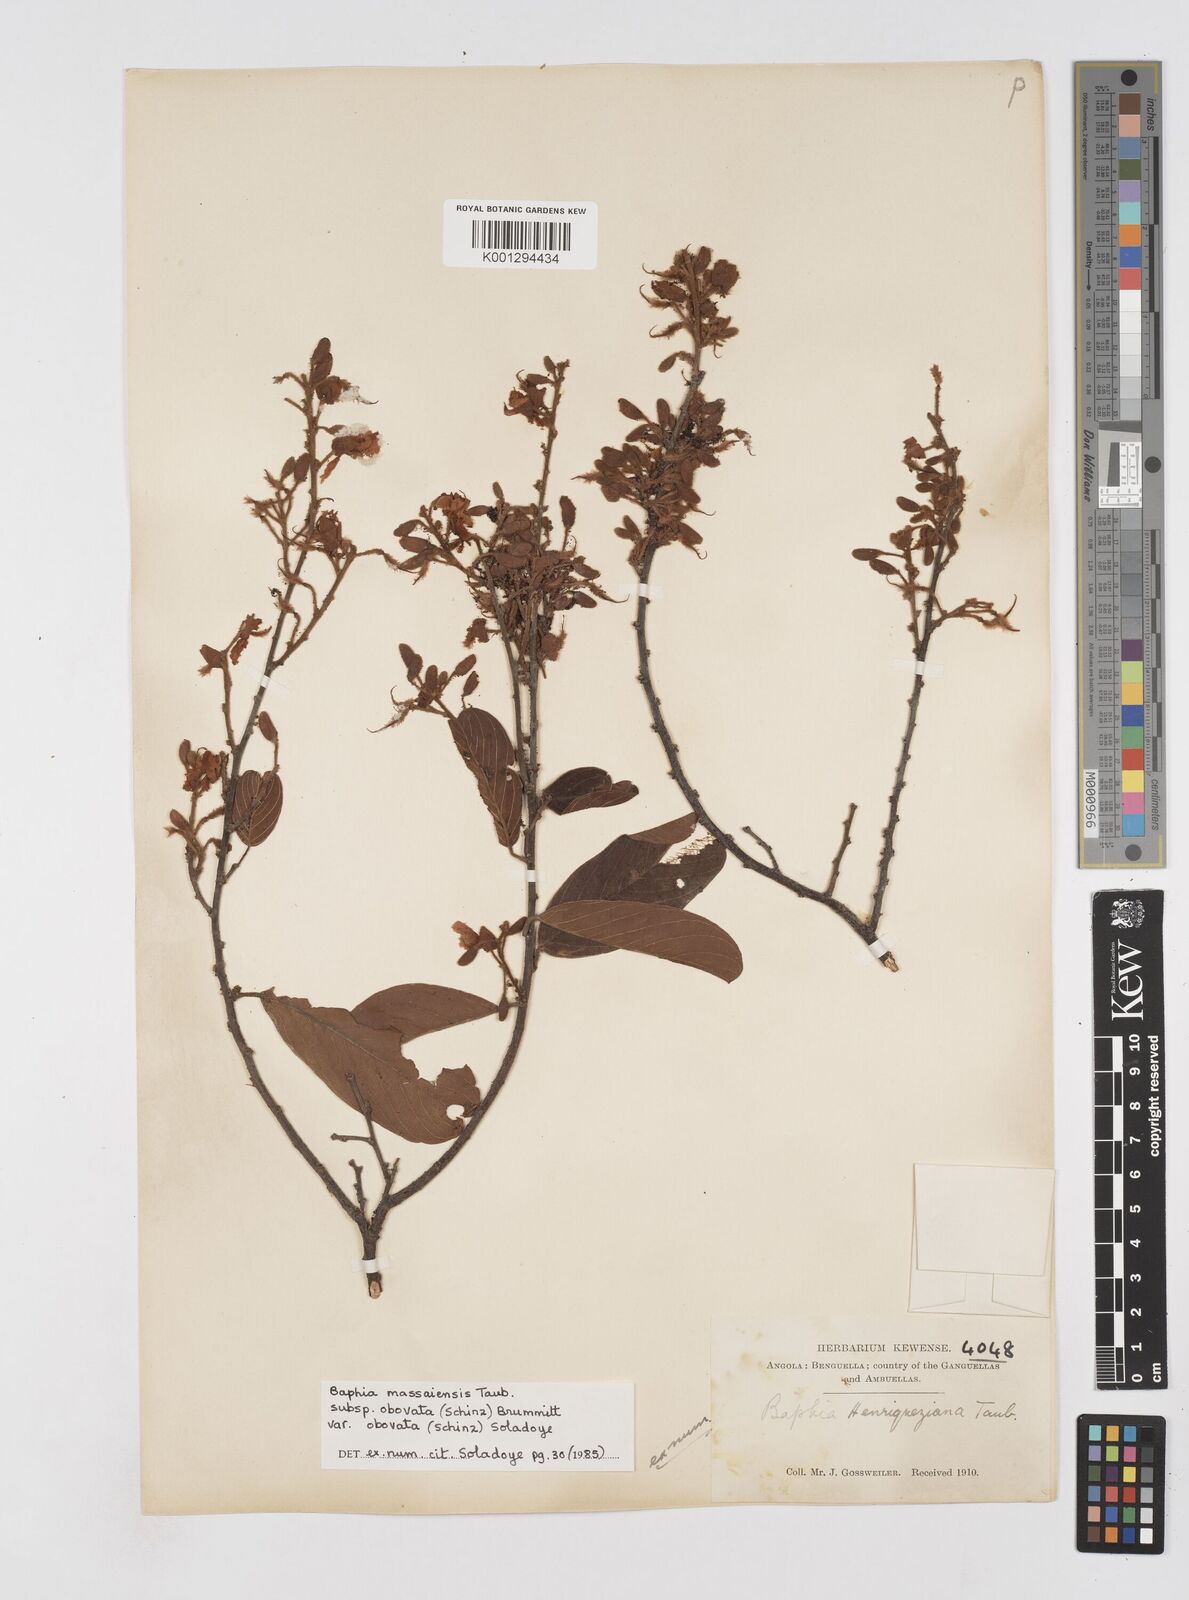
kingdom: Plantae
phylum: Tracheophyta
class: Magnoliopsida
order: Fabales
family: Fabaceae
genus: Baphia
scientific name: Baphia massaiensis
